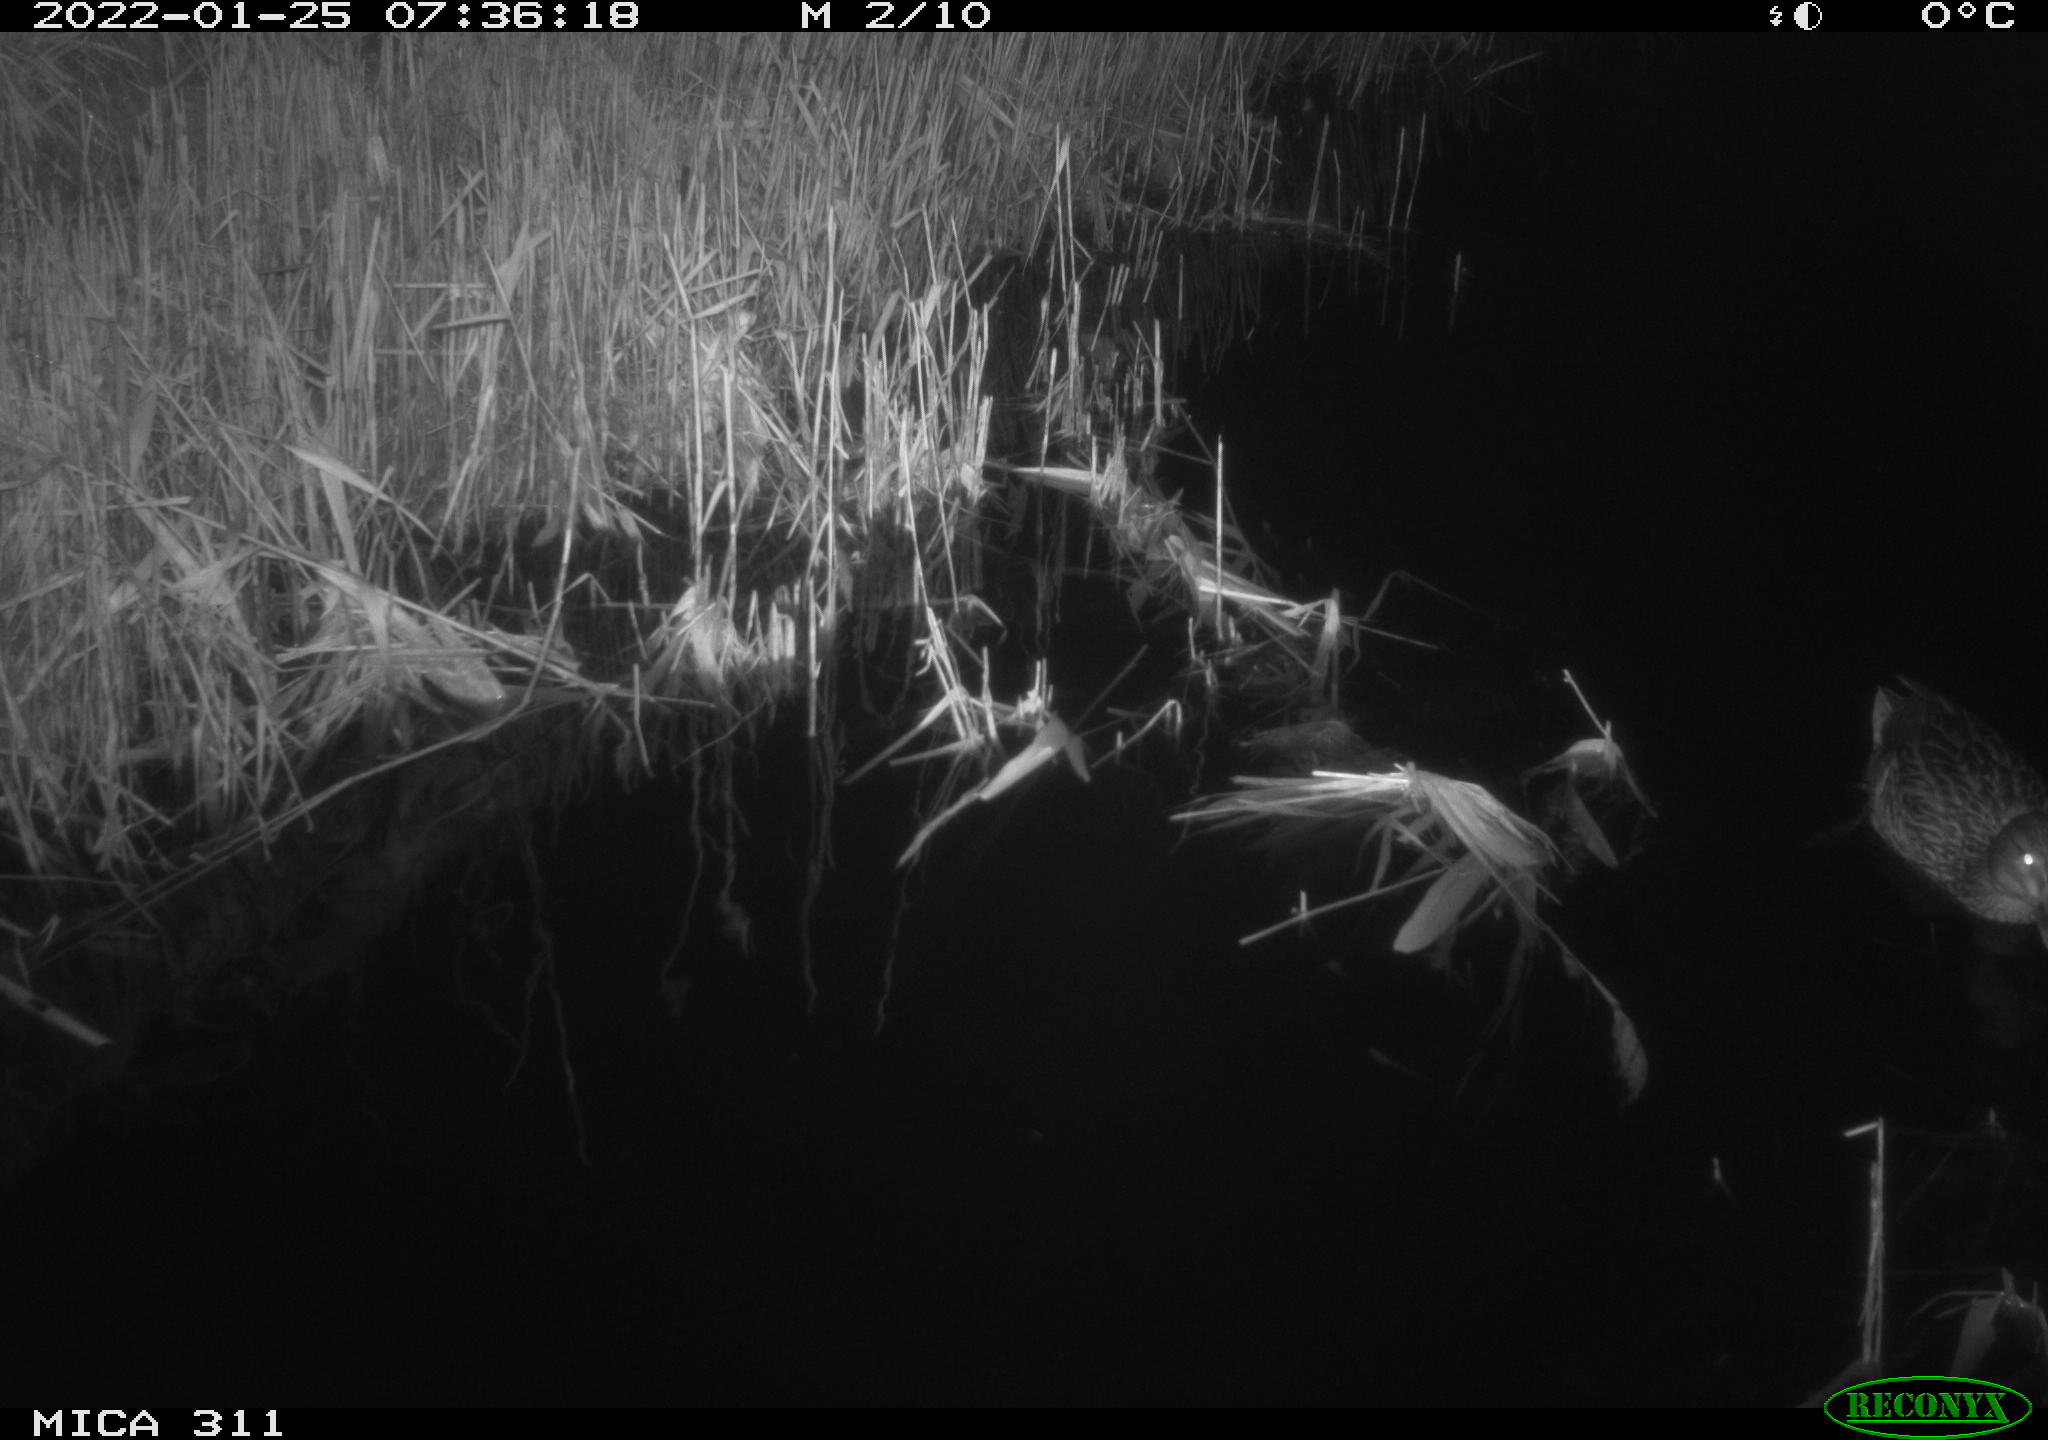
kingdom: Animalia
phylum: Chordata
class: Aves
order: Anseriformes
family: Anatidae
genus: Anas
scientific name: Anas
